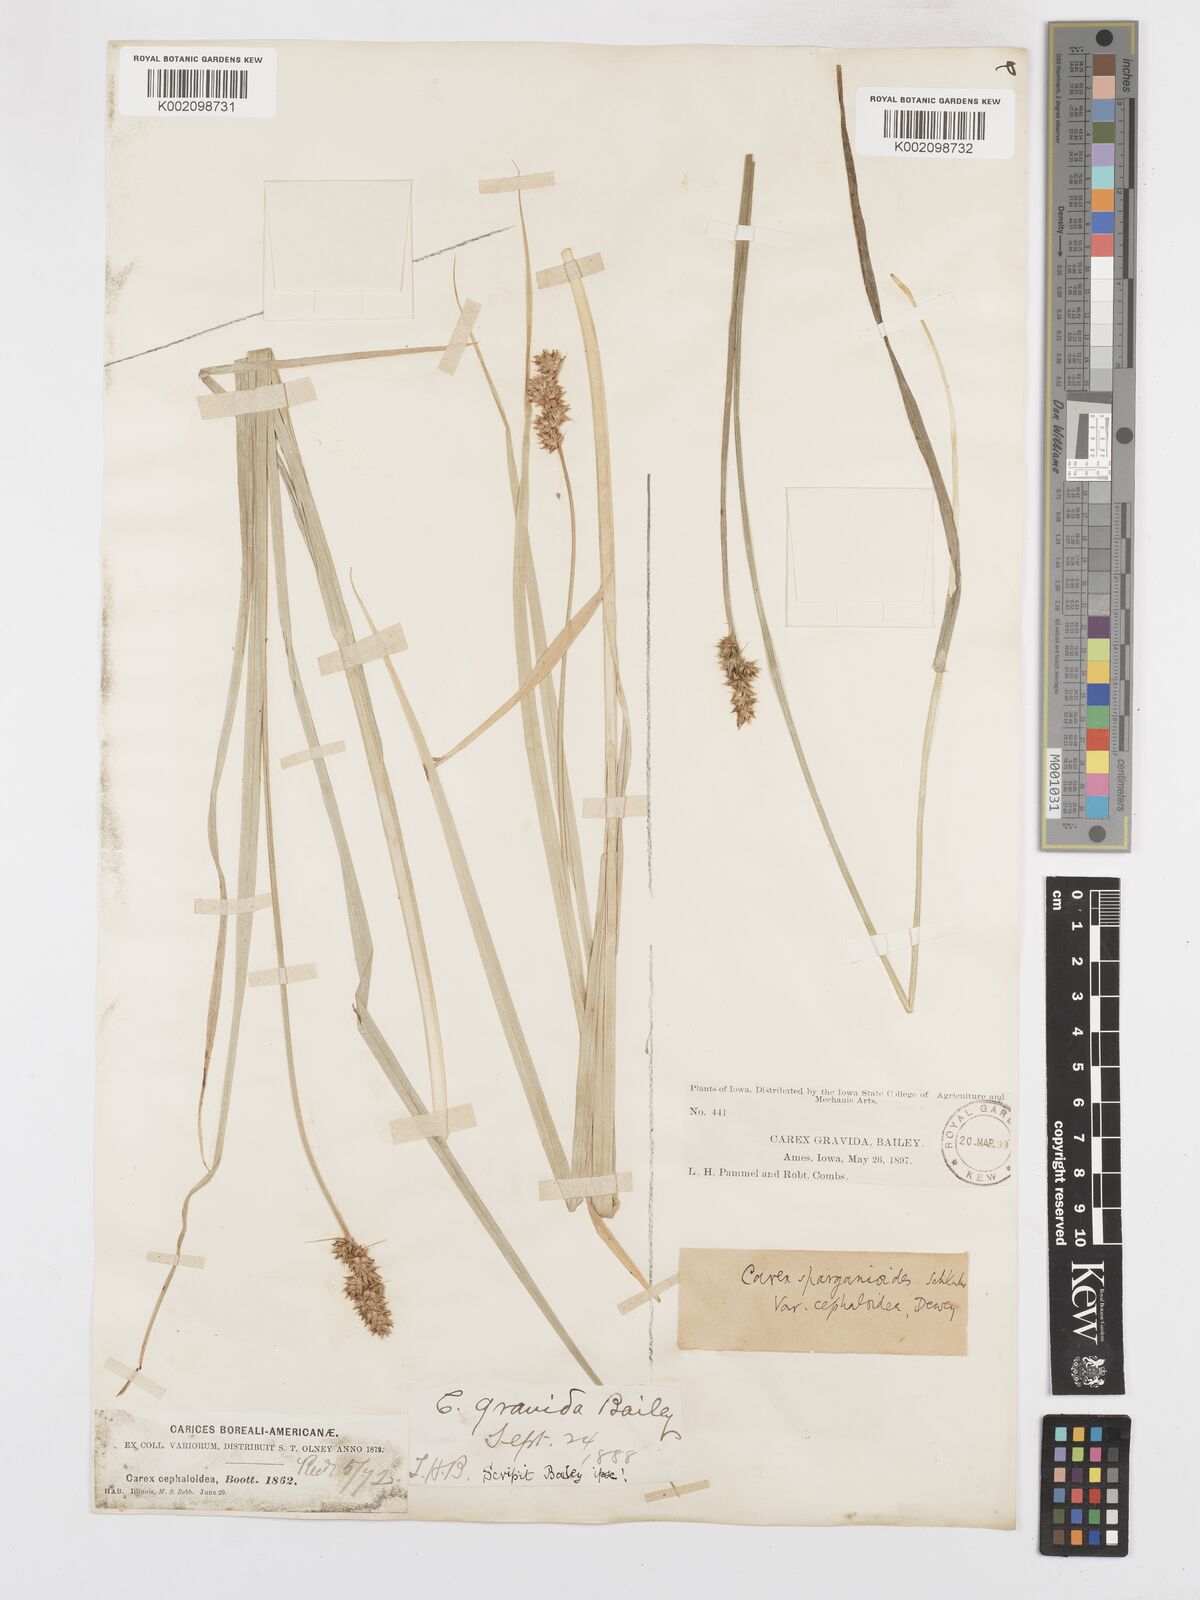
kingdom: Plantae
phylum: Tracheophyta
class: Liliopsida
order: Poales
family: Cyperaceae
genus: Carex
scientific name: Carex cephaloidea
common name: Thin-leaved sedge
